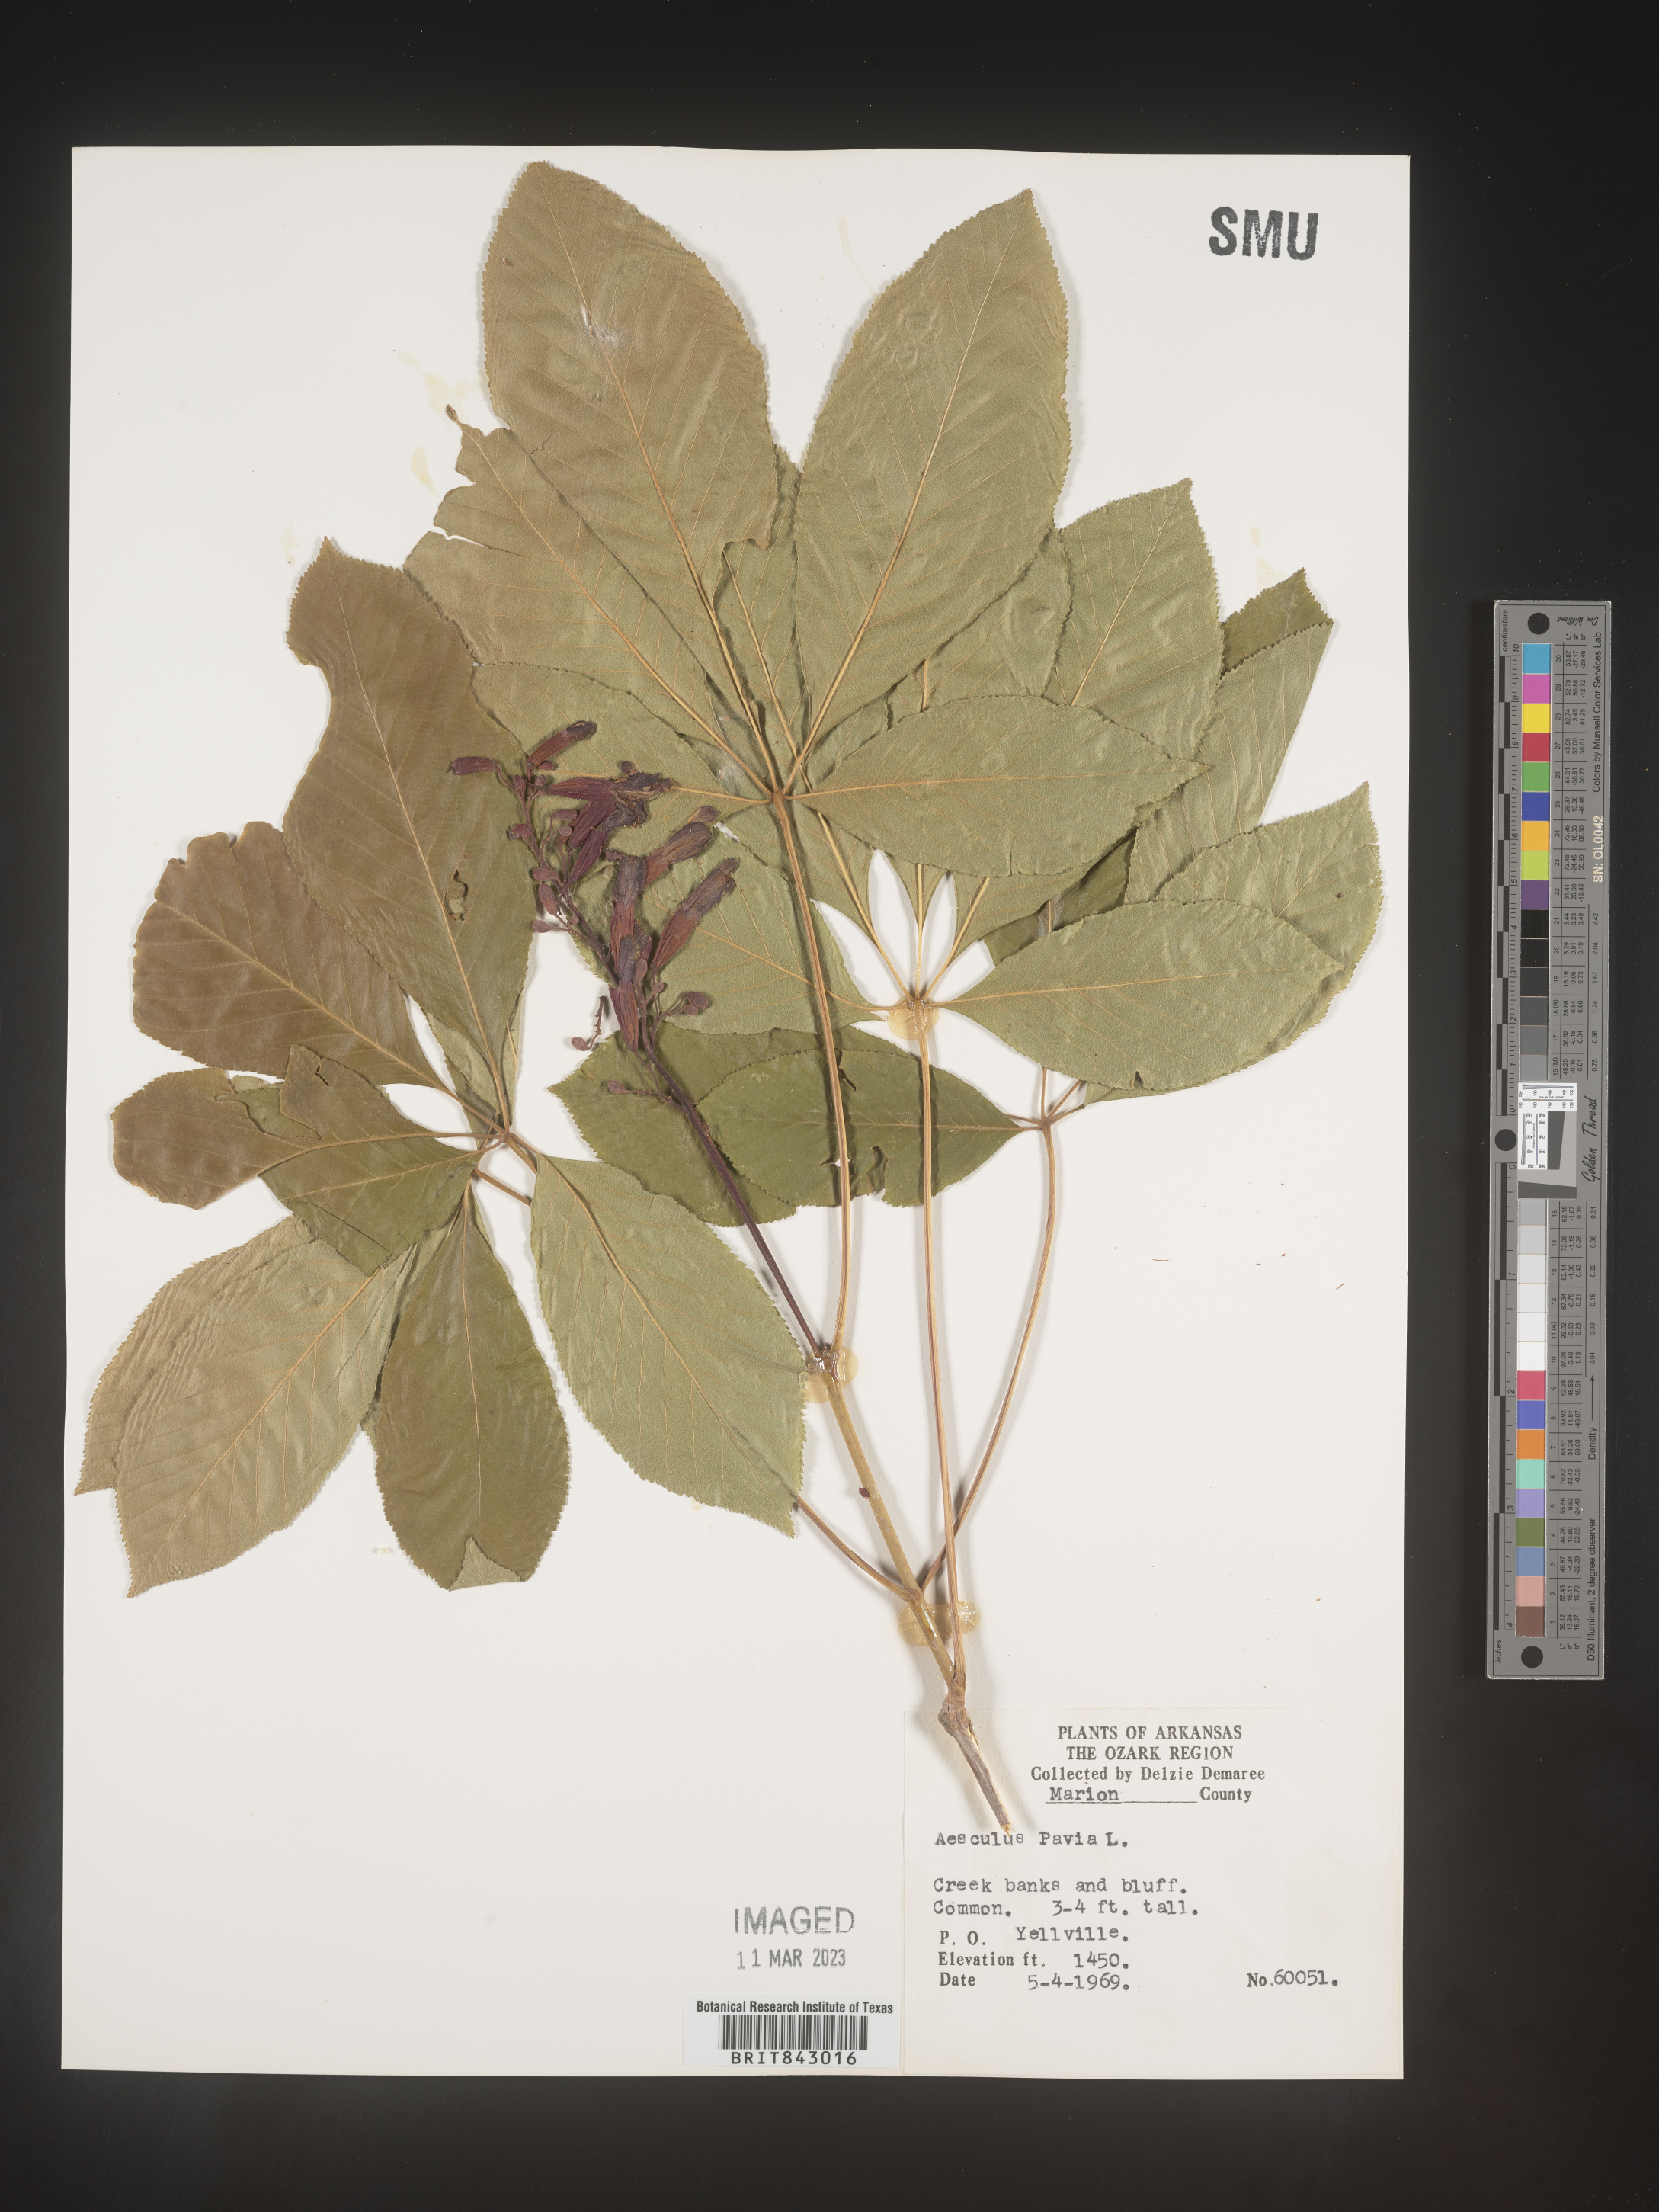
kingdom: Plantae
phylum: Tracheophyta
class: Magnoliopsida
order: Sapindales
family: Sapindaceae
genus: Aesculus
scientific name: Aesculus pavia
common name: Red buckeye
